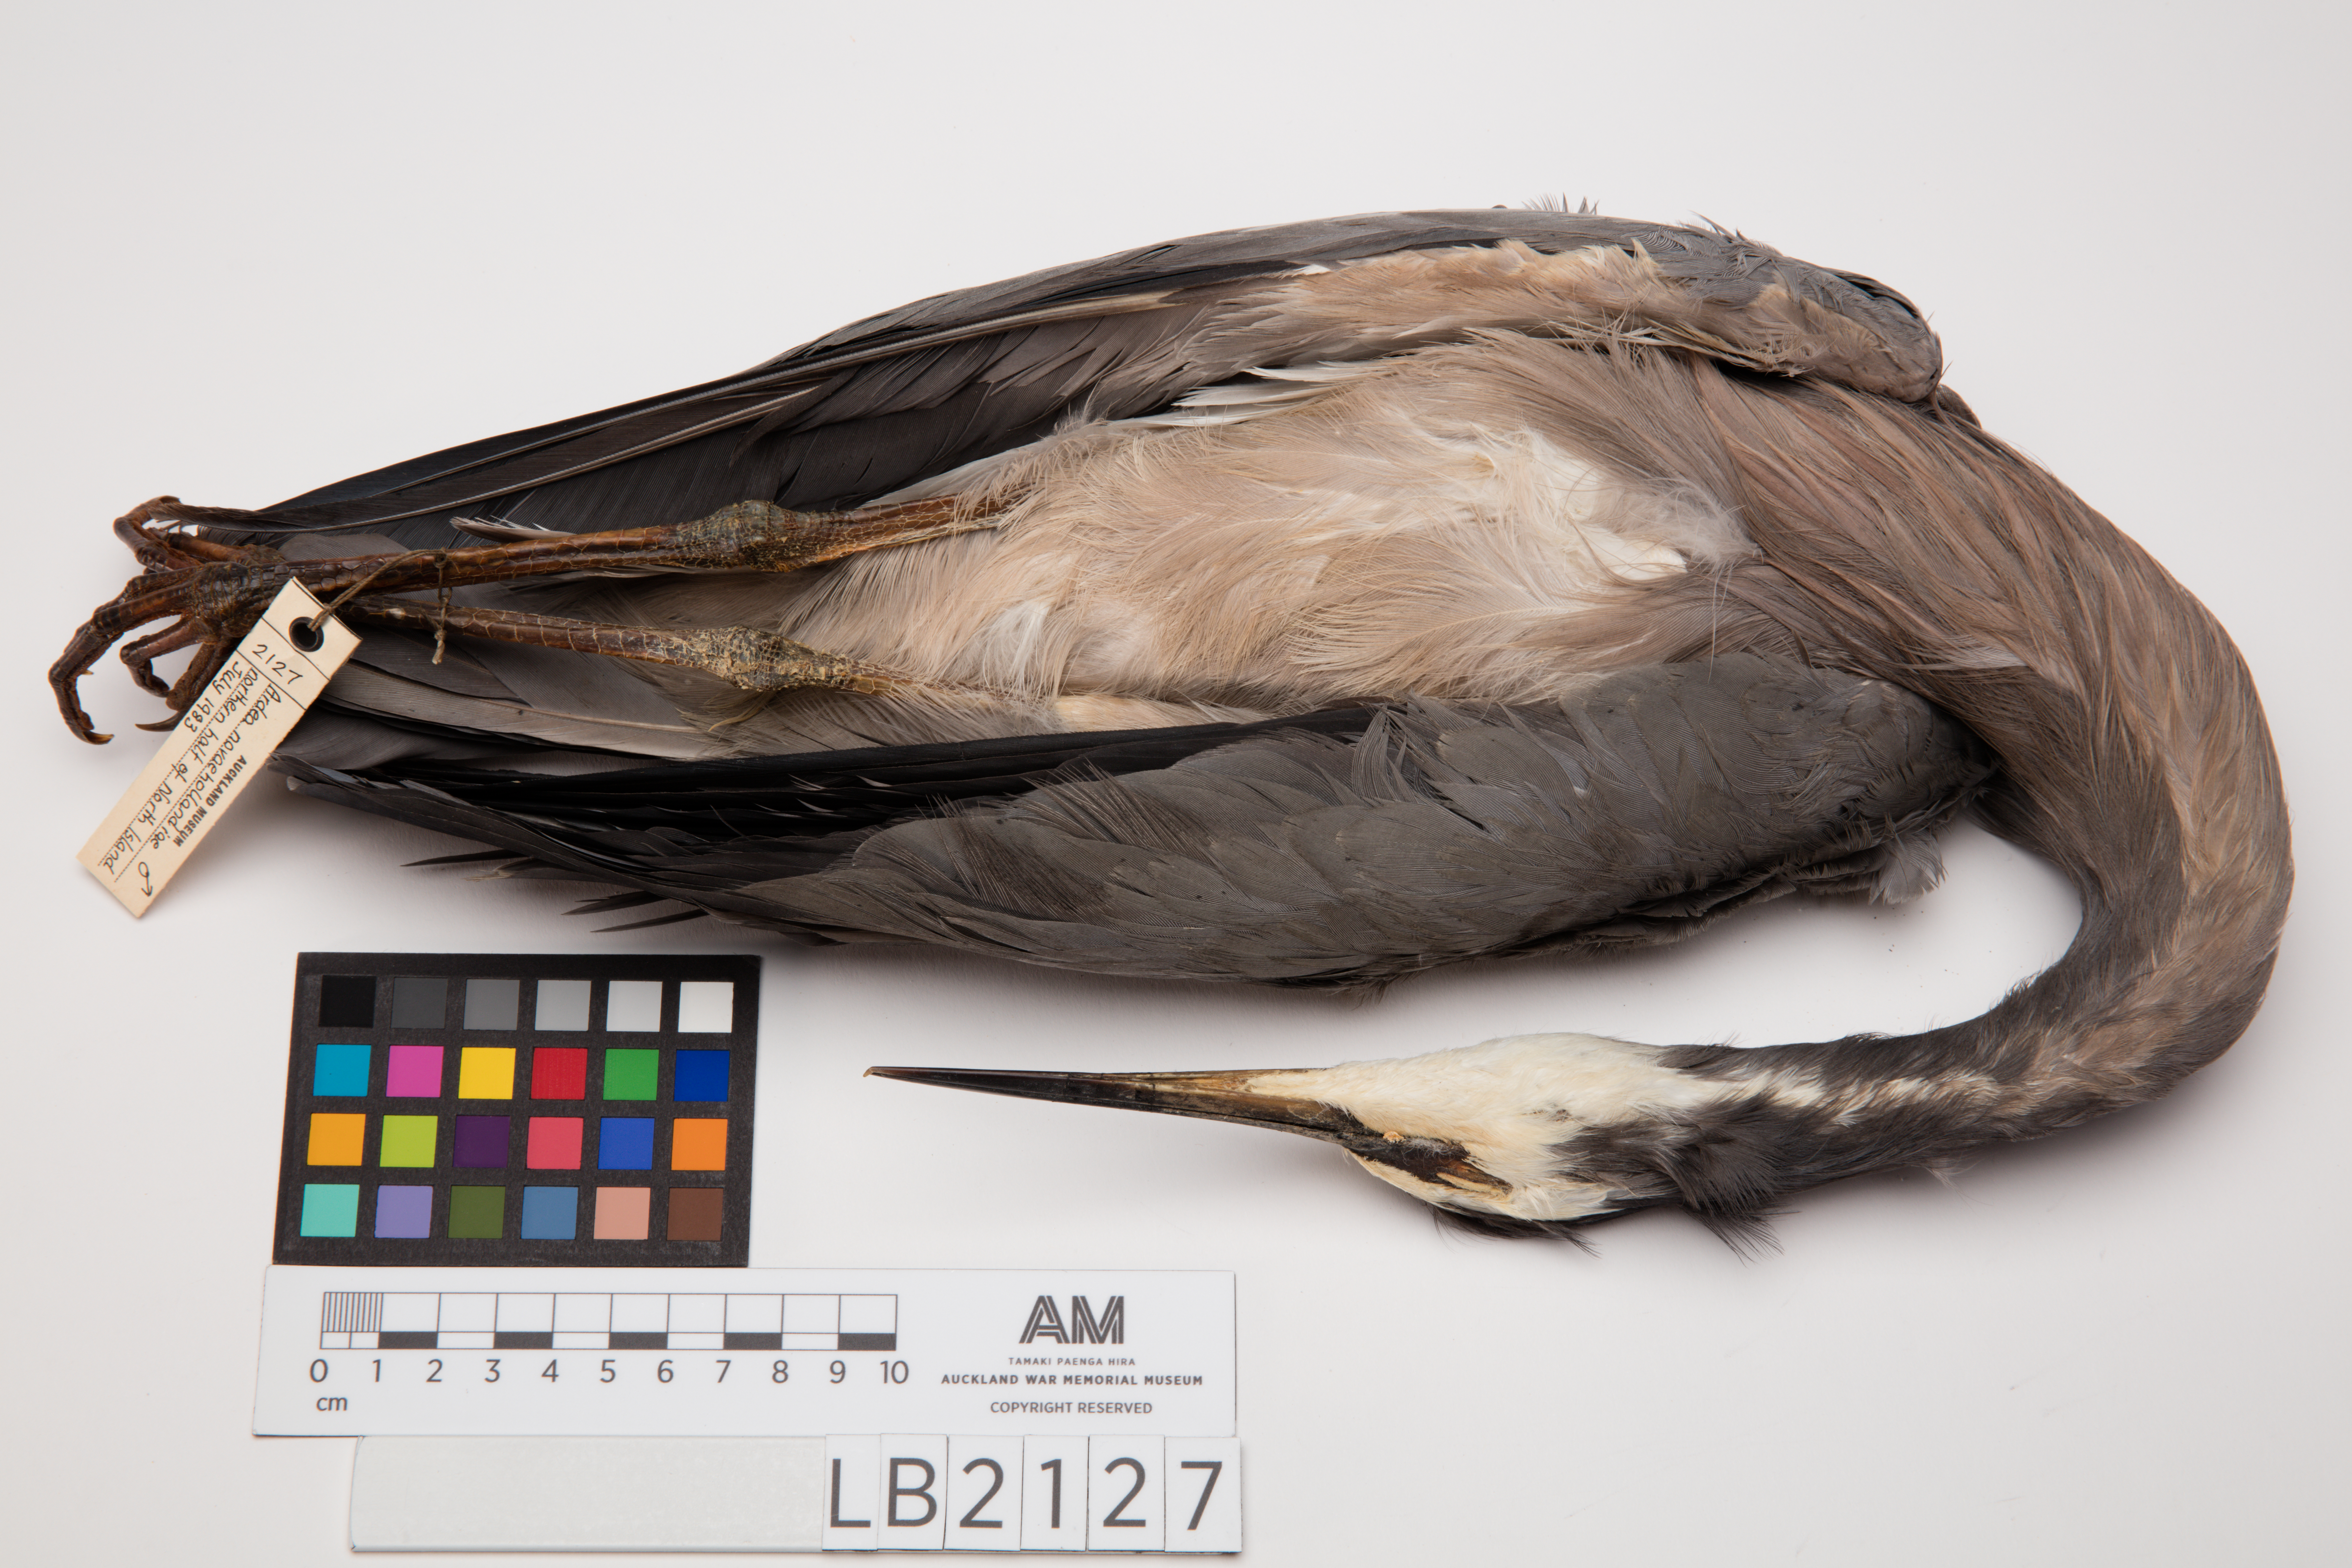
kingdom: Animalia
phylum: Chordata
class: Aves
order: Pelecaniformes
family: Ardeidae
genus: Egretta
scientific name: Egretta novaehollandiae
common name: White-faced heron
